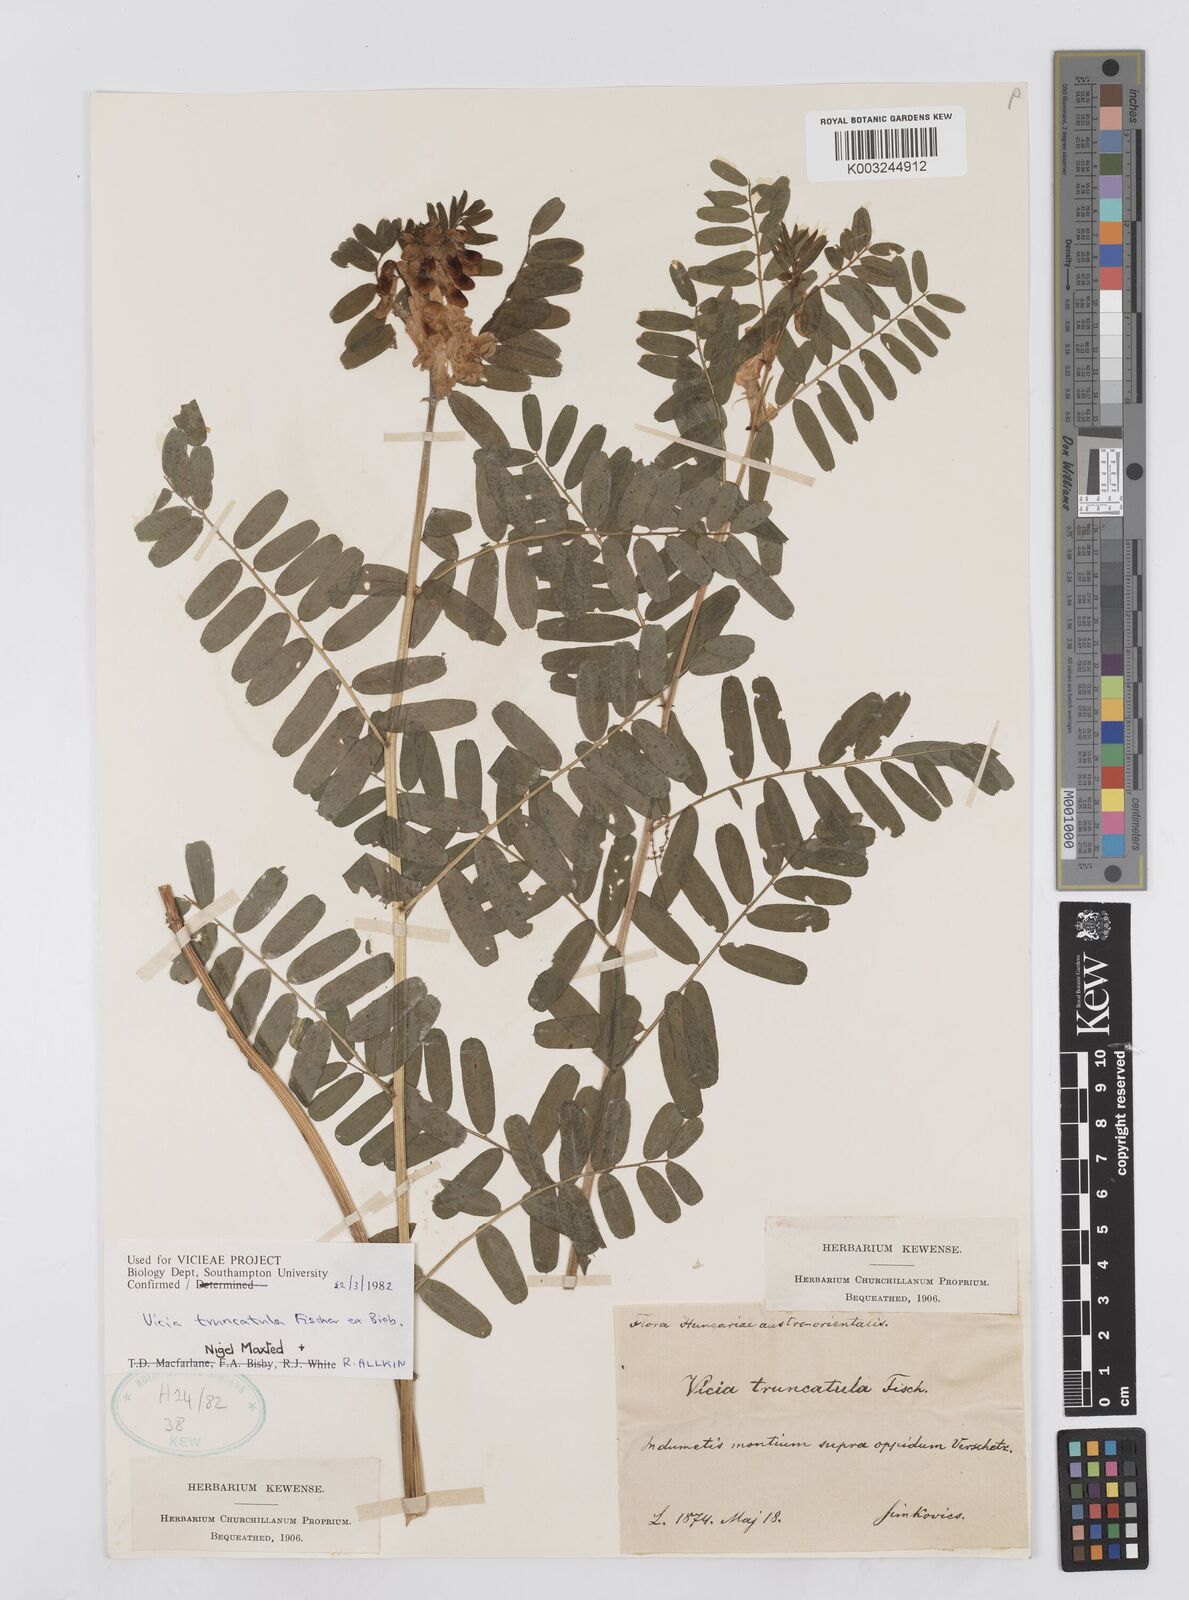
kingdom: Plantae
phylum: Tracheophyta
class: Magnoliopsida
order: Fabales
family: Fabaceae
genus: Vicia
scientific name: Vicia abbreviata
